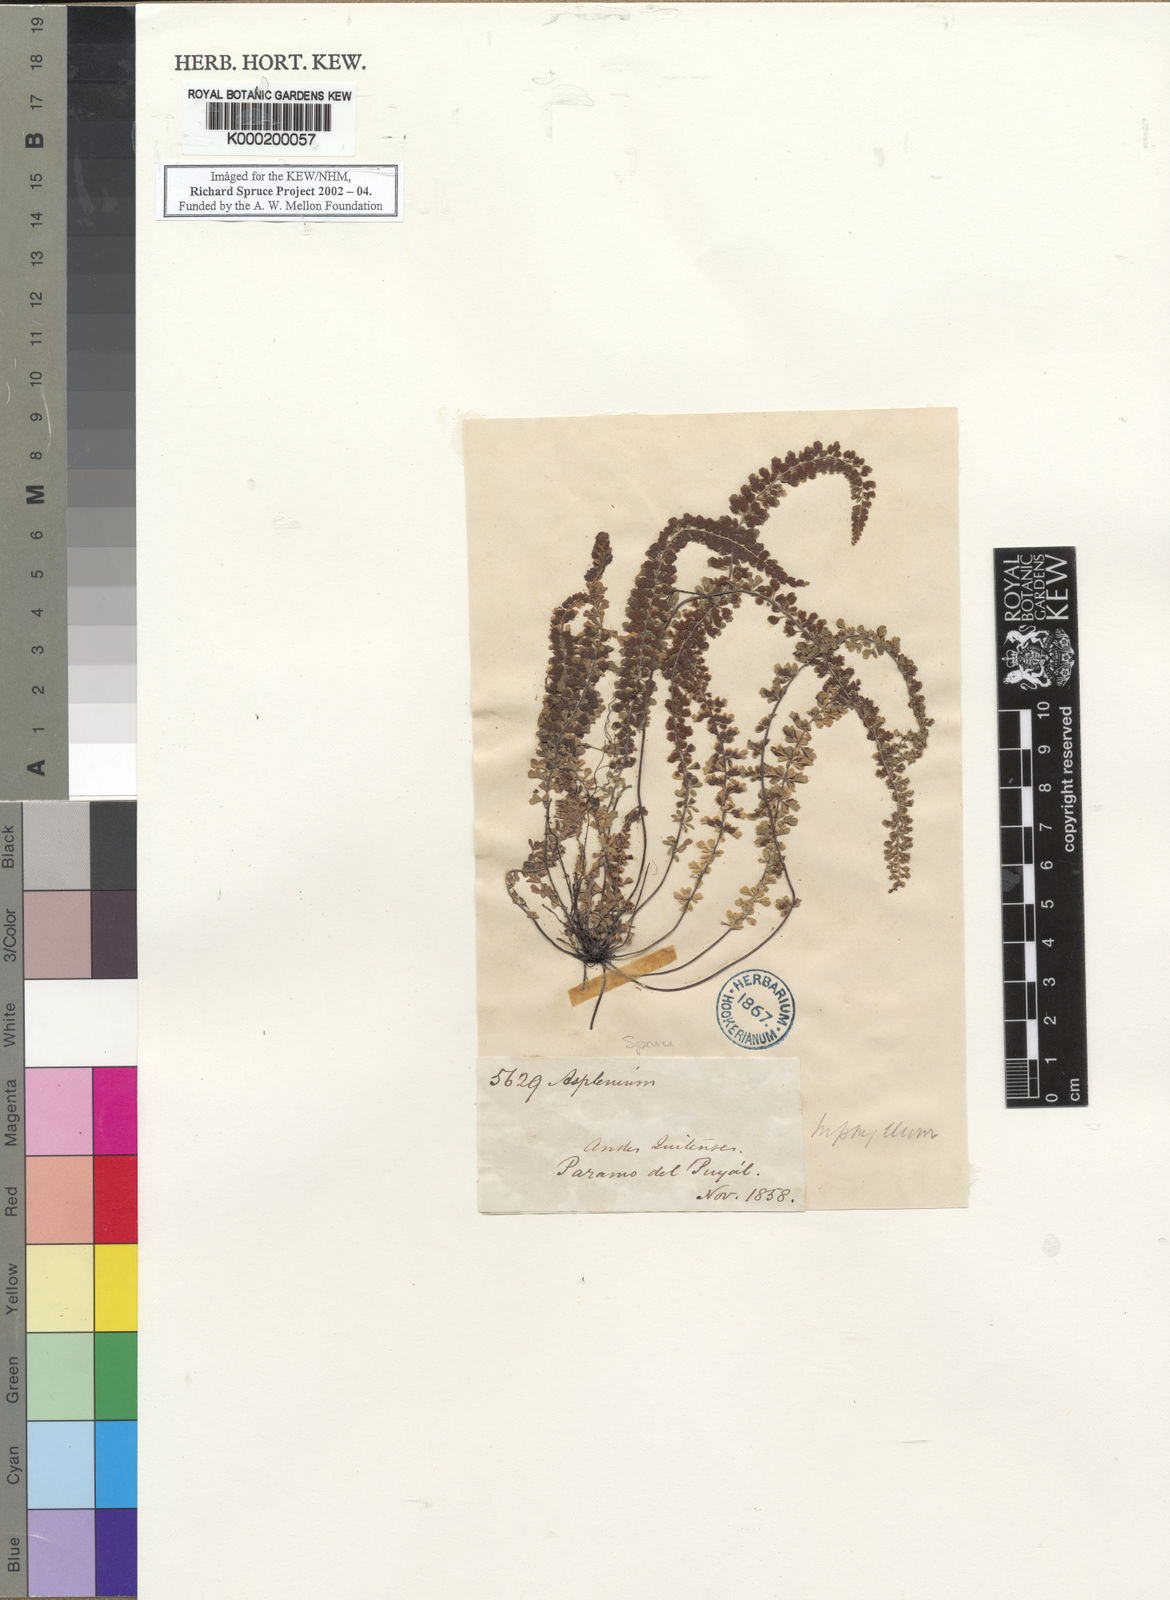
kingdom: Plantae
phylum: Tracheophyta
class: Polypodiopsida
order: Polypodiales
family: Aspleniaceae
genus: Asplenium
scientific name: Asplenium triphyllum
